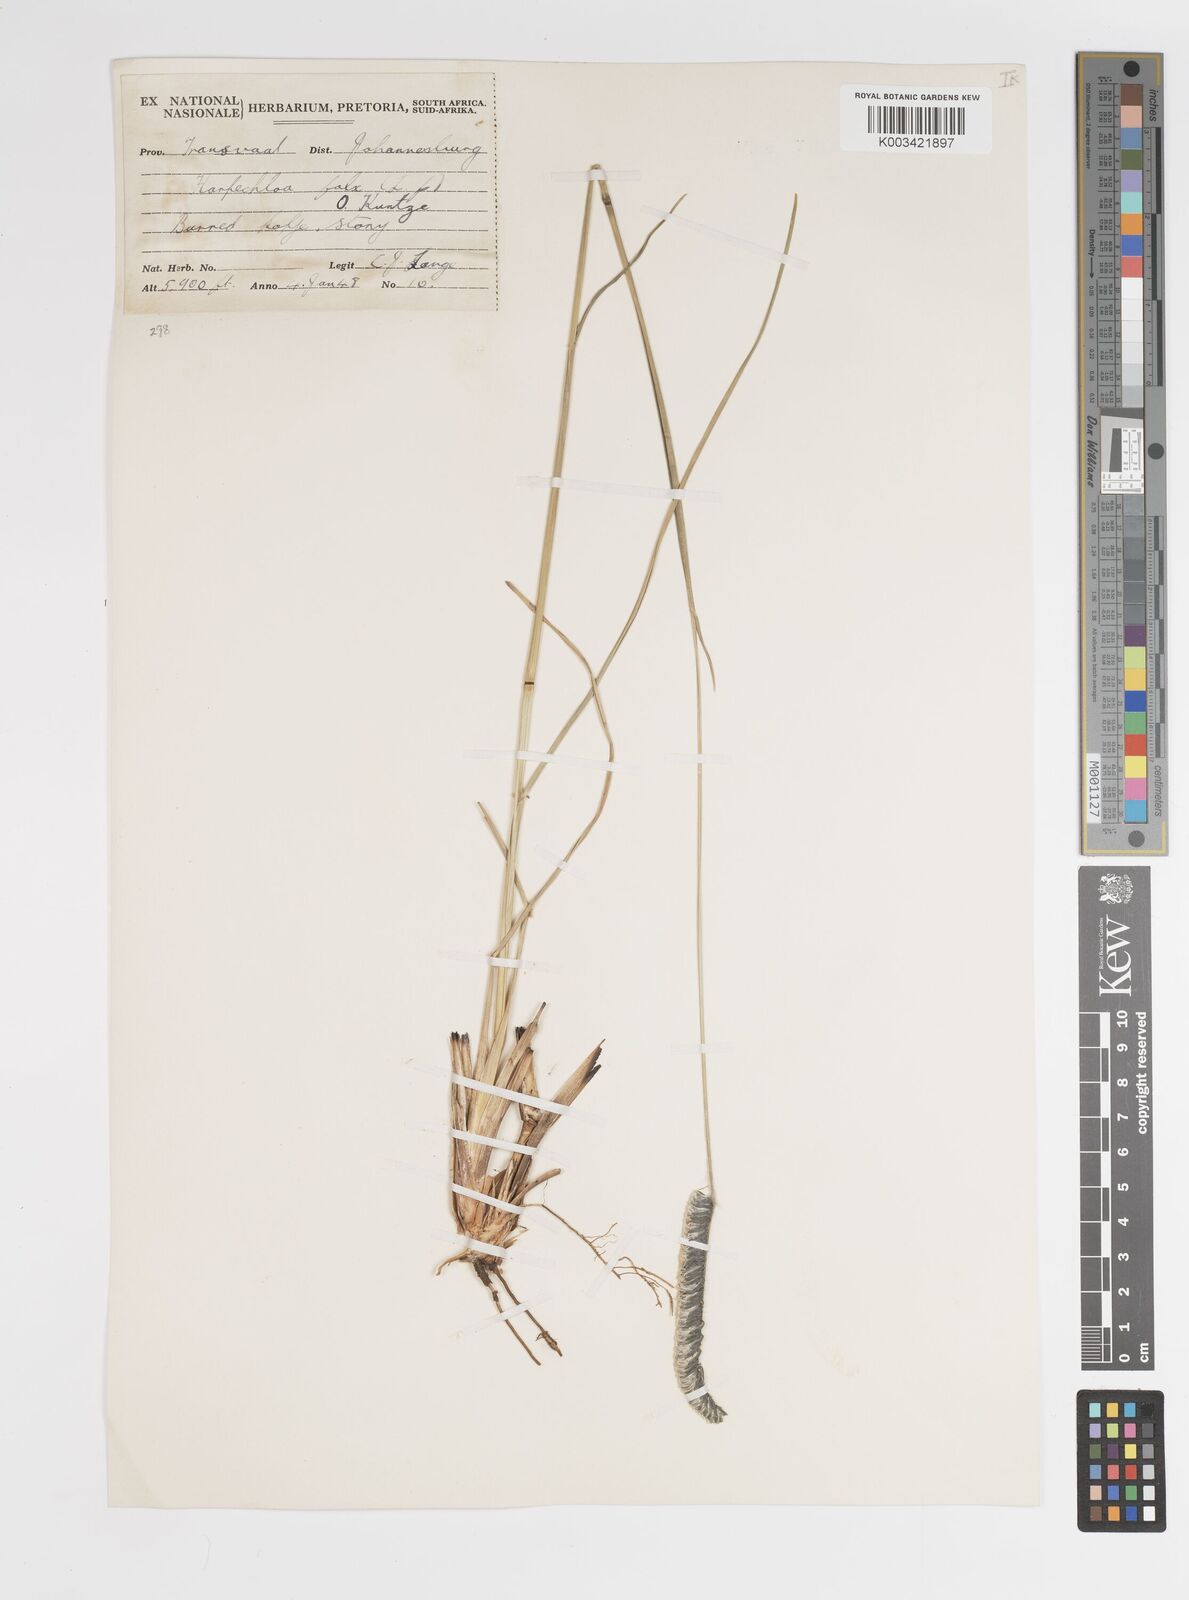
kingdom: Plantae
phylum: Tracheophyta
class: Liliopsida
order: Poales
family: Poaceae
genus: Harpochloa
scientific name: Harpochloa falx
